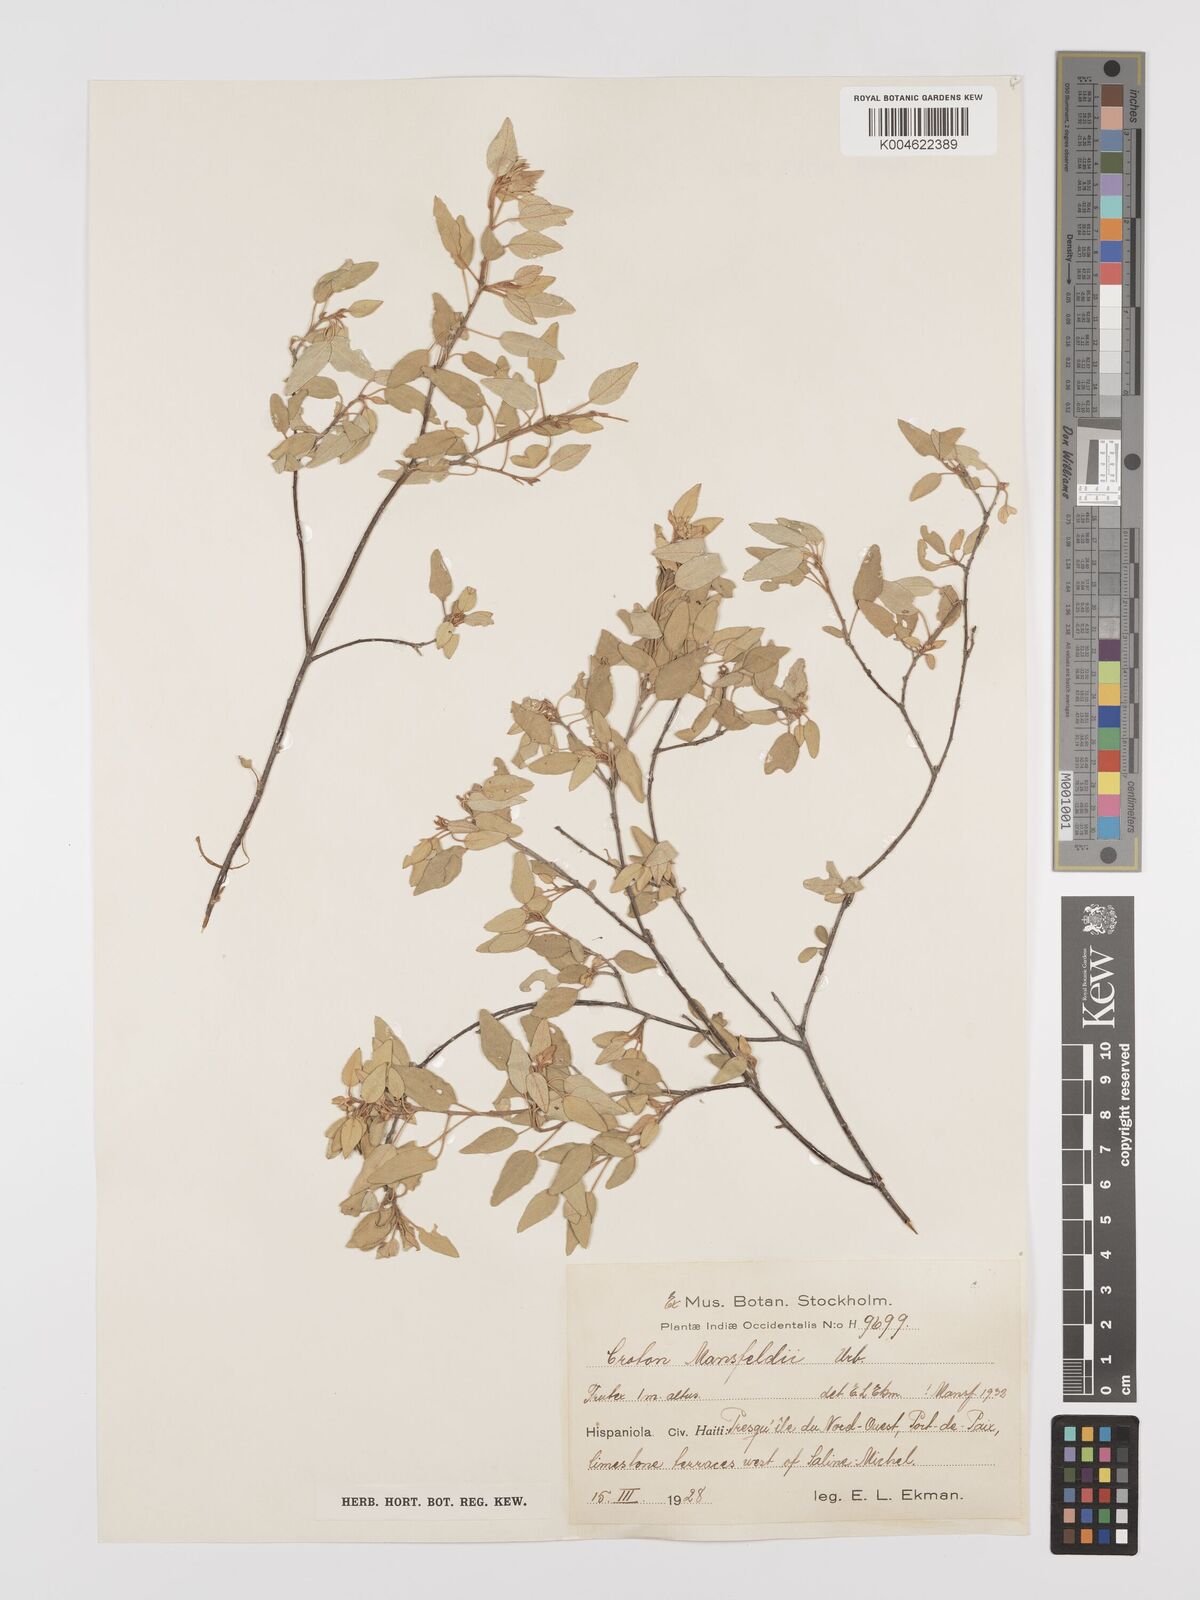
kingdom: Plantae
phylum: Tracheophyta
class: Magnoliopsida
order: Malpighiales
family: Euphorbiaceae
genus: Croton
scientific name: Croton mansfeldii
